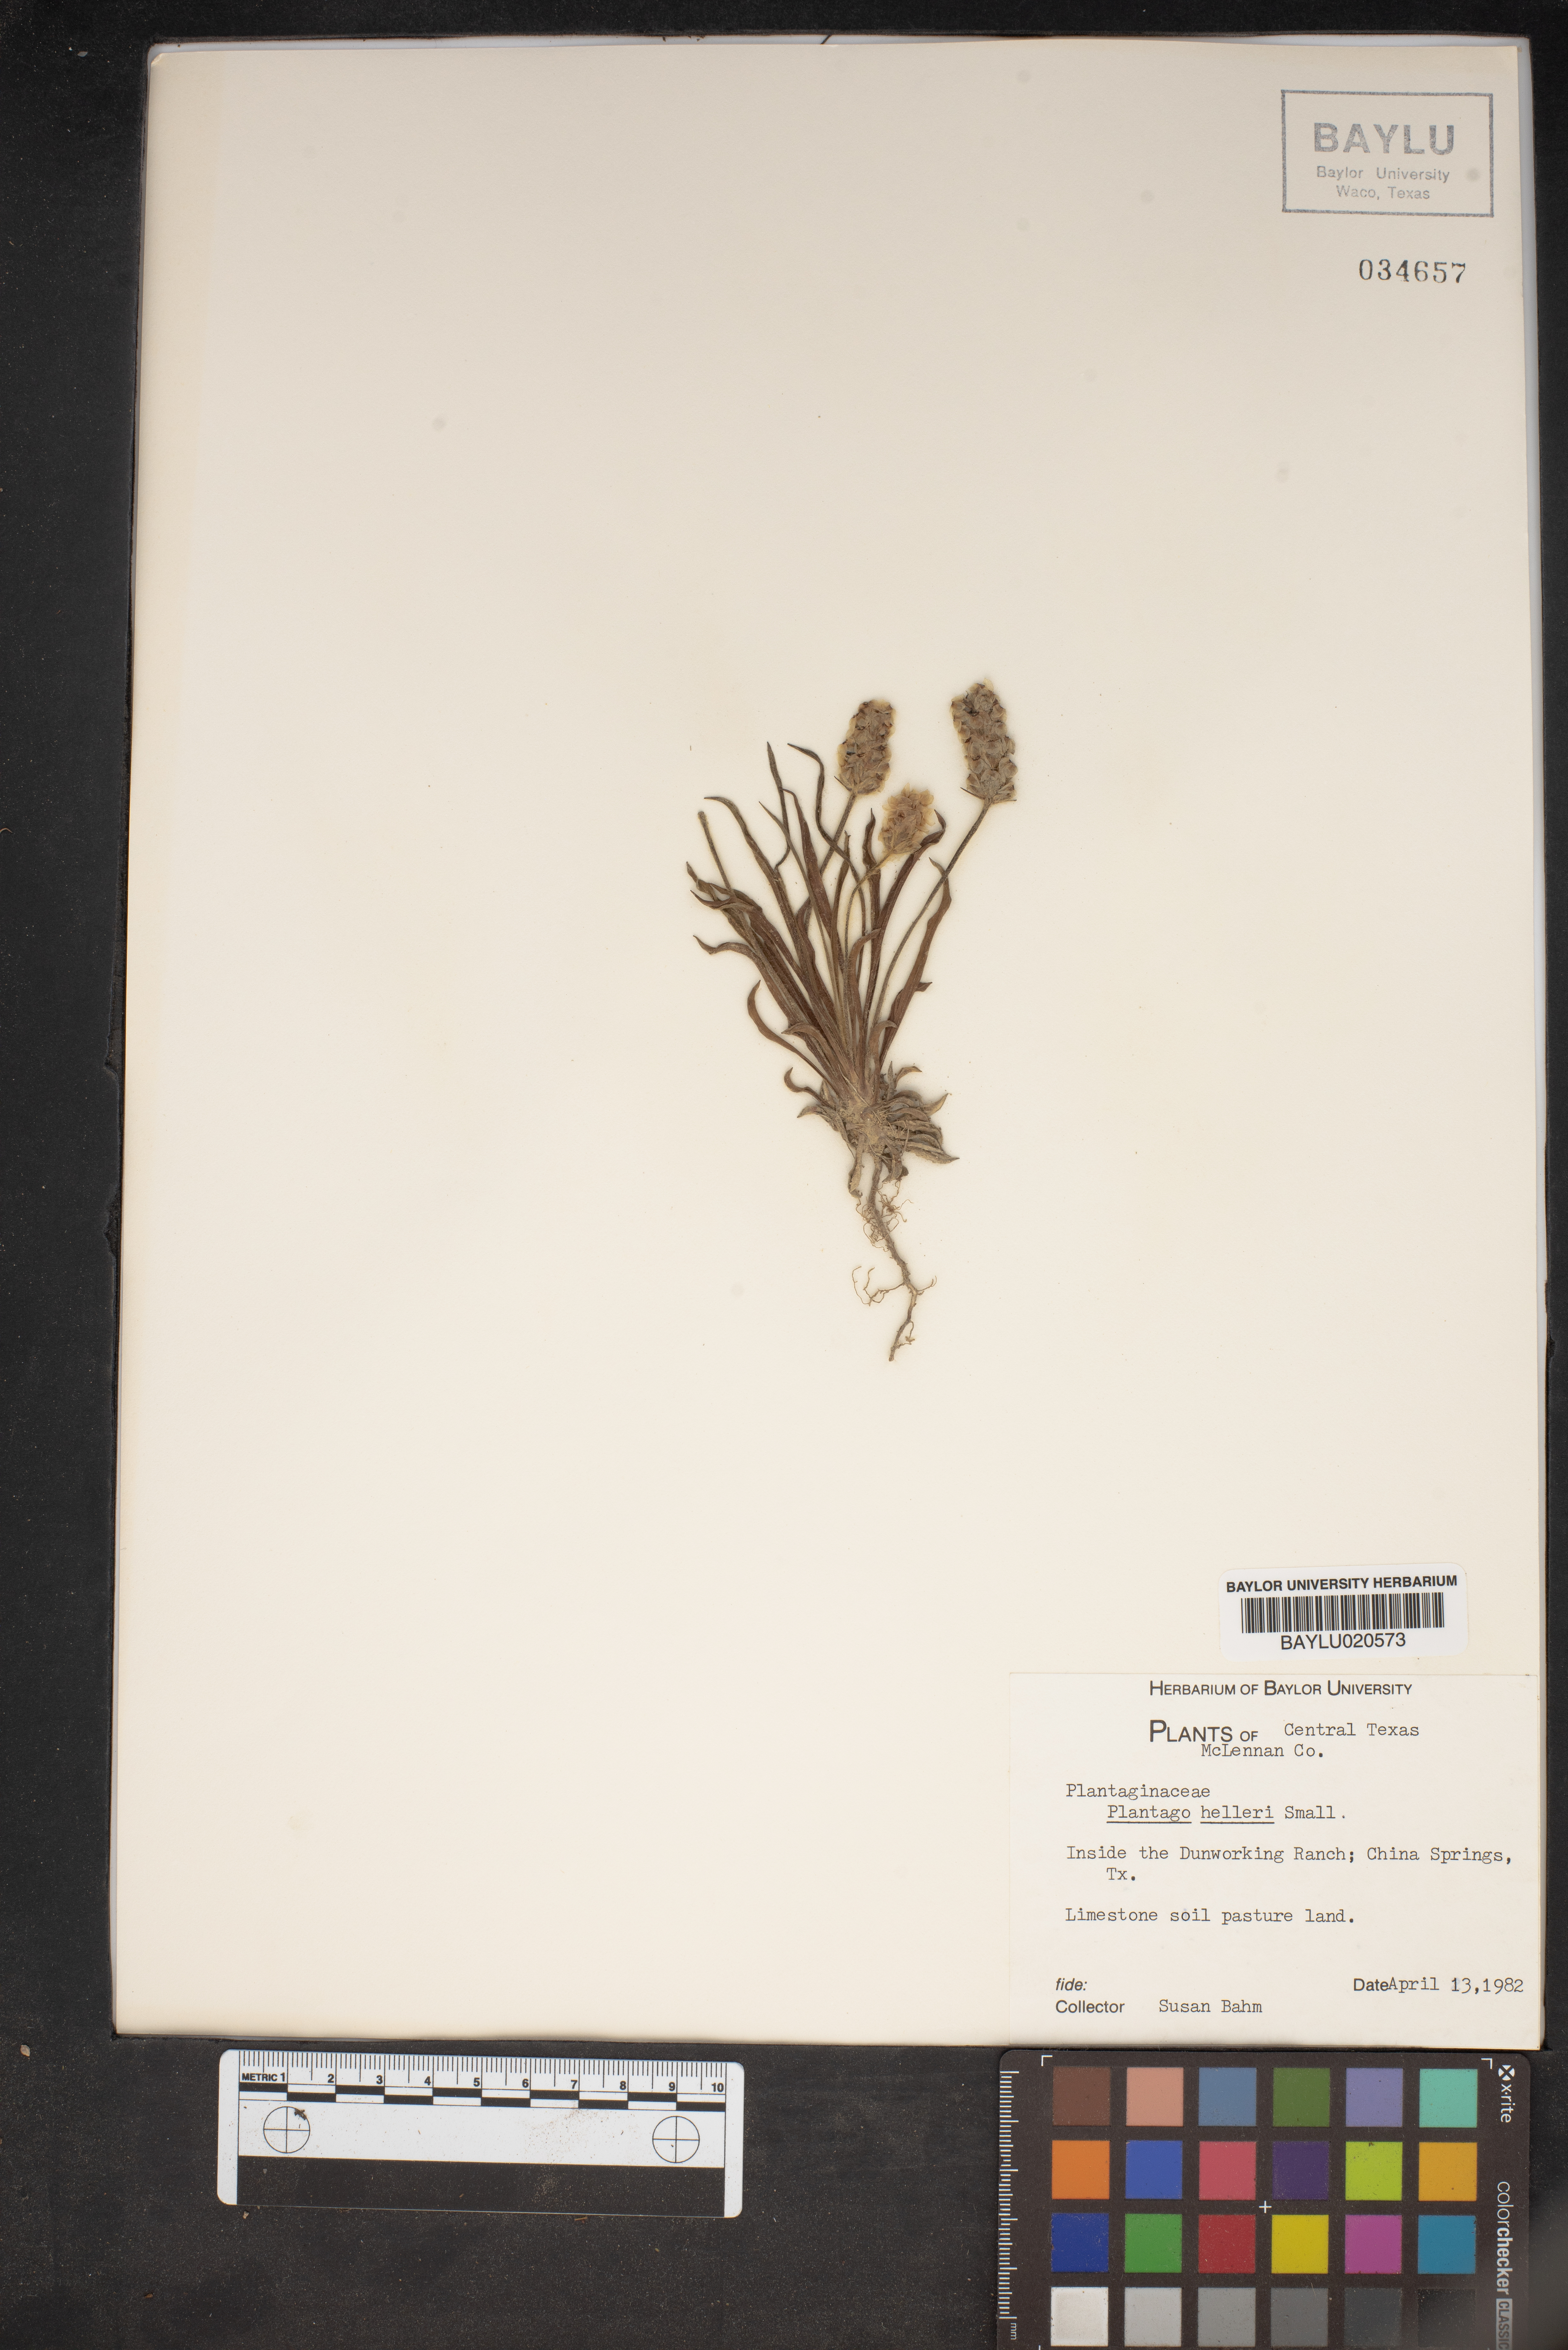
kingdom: Plantae
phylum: Tracheophyta
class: Magnoliopsida
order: Lamiales
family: Plantaginaceae
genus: Plantago
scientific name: Plantago helleri
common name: Heller's plantain
